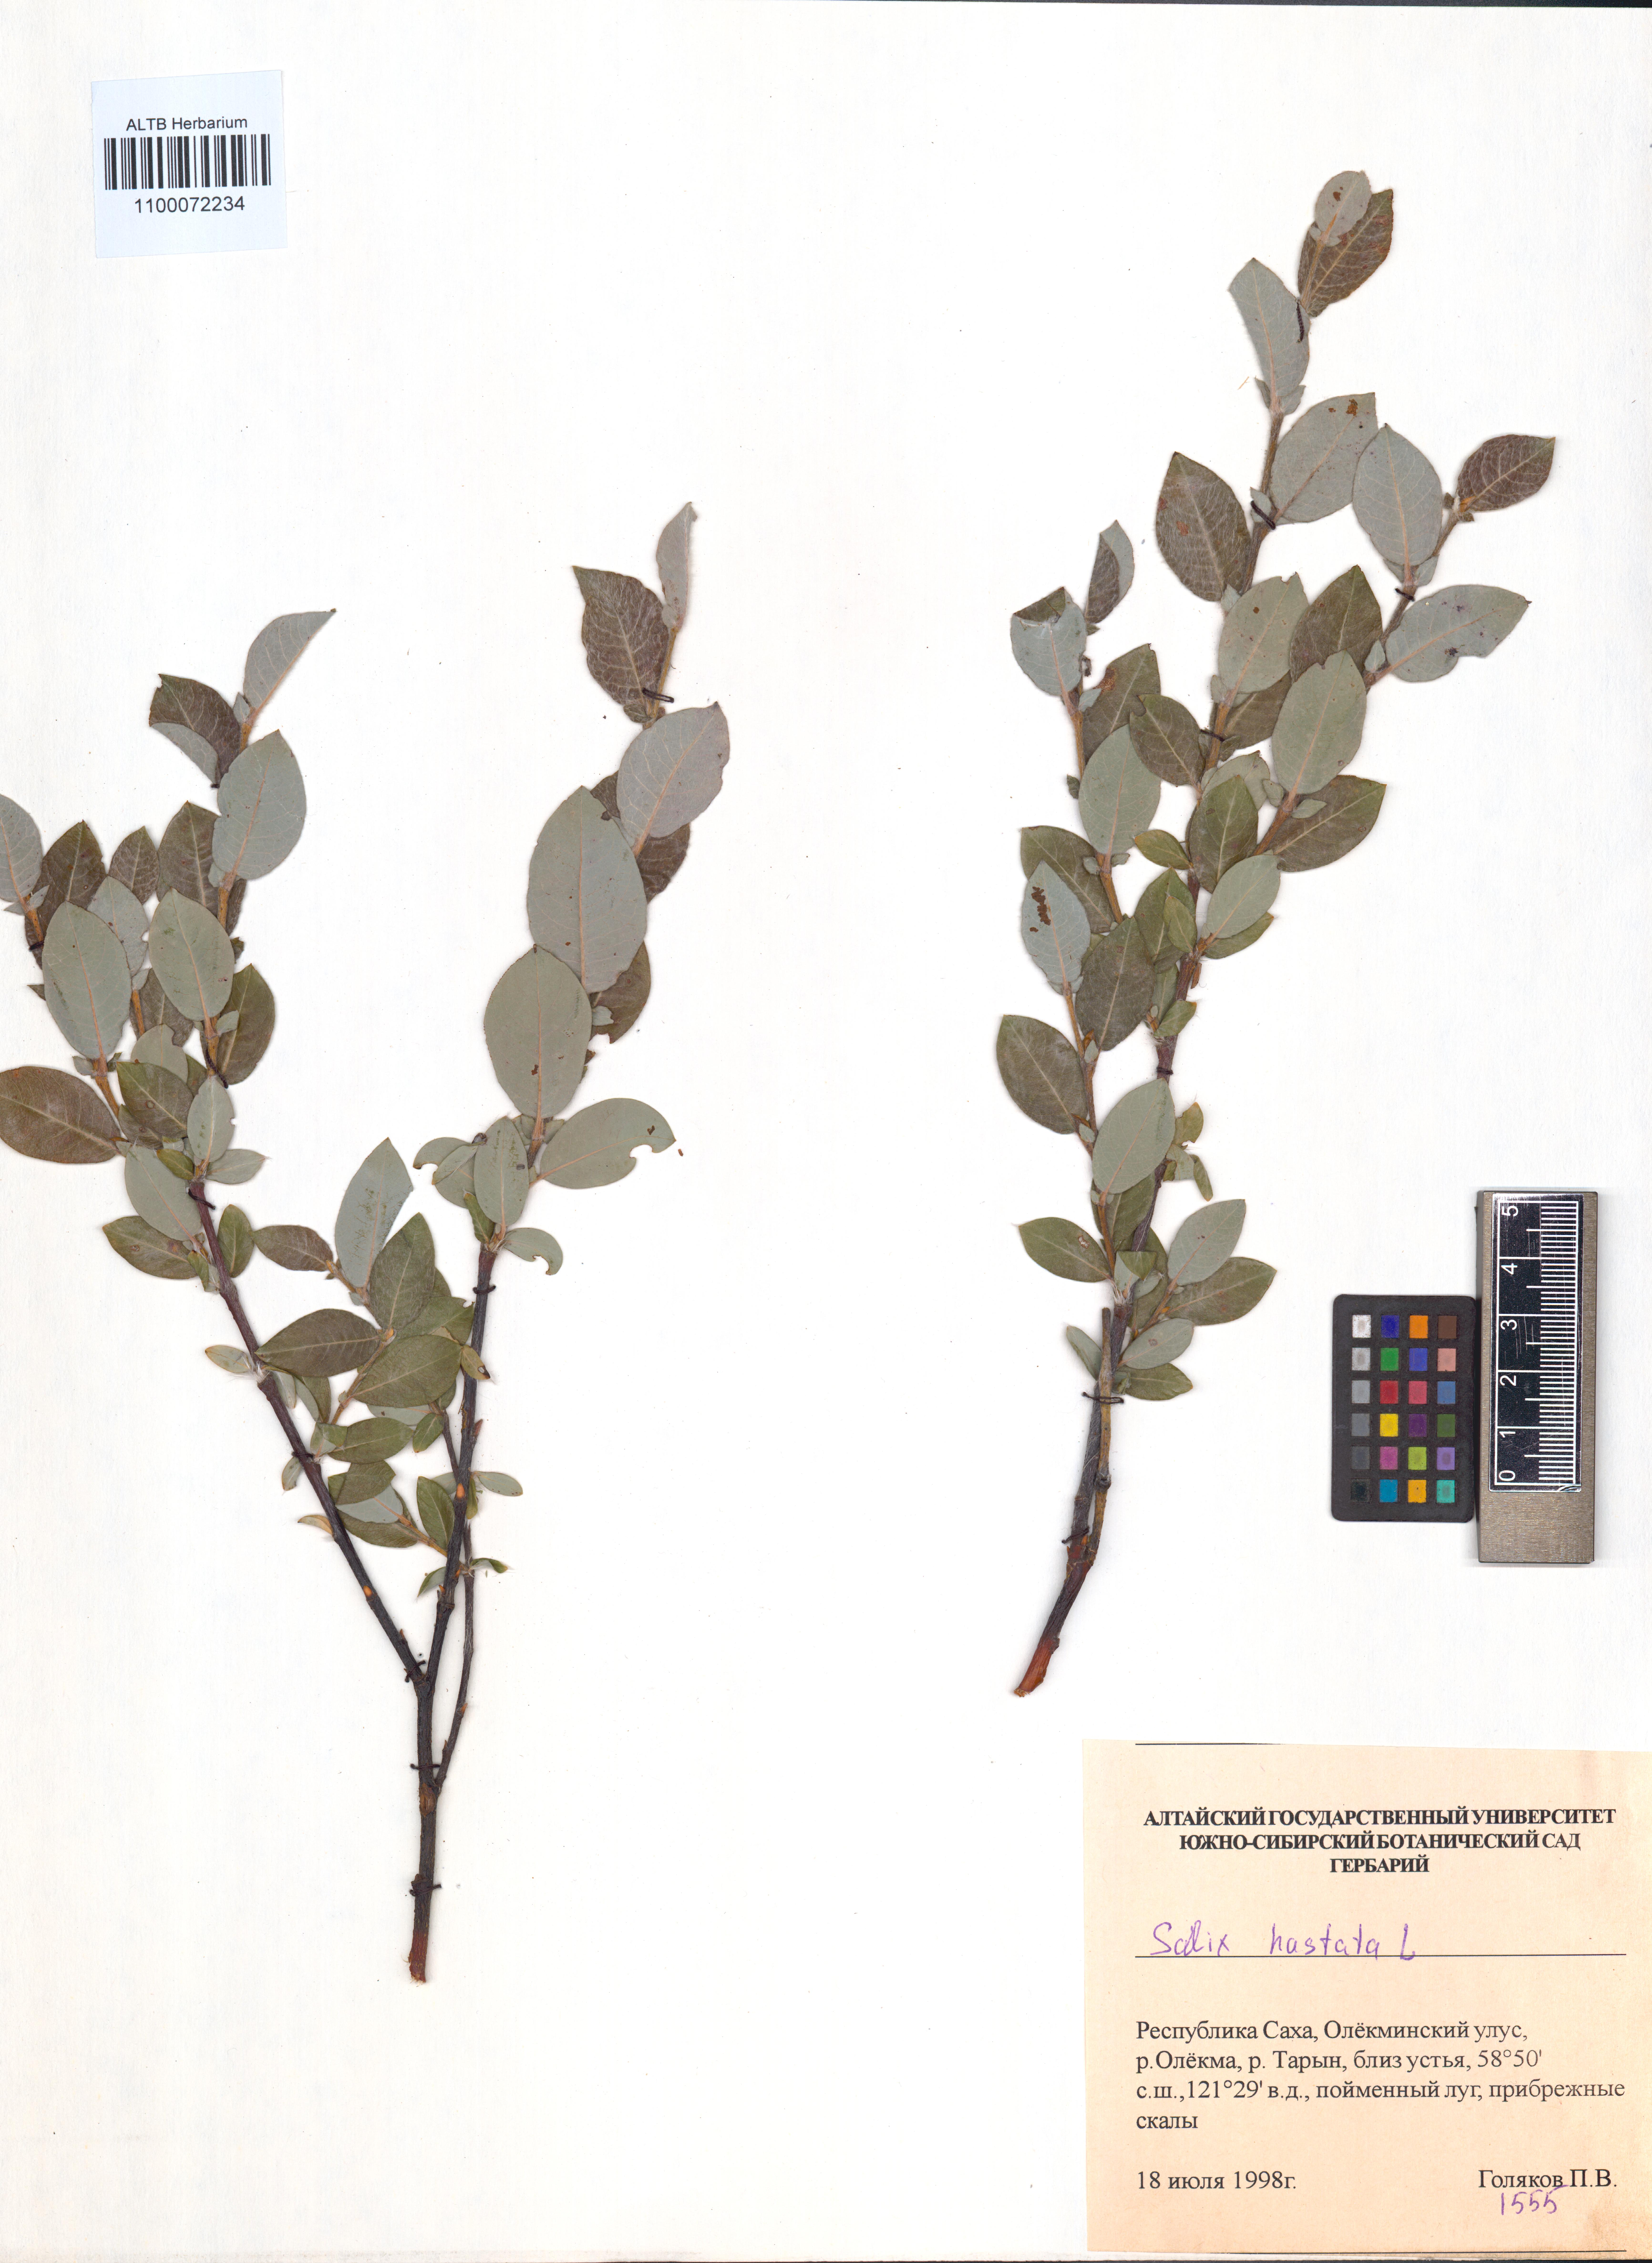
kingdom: Plantae
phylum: Tracheophyta
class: Magnoliopsida
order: Malpighiales
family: Salicaceae
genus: Salix
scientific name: Salix hastata
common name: Halberd willow
